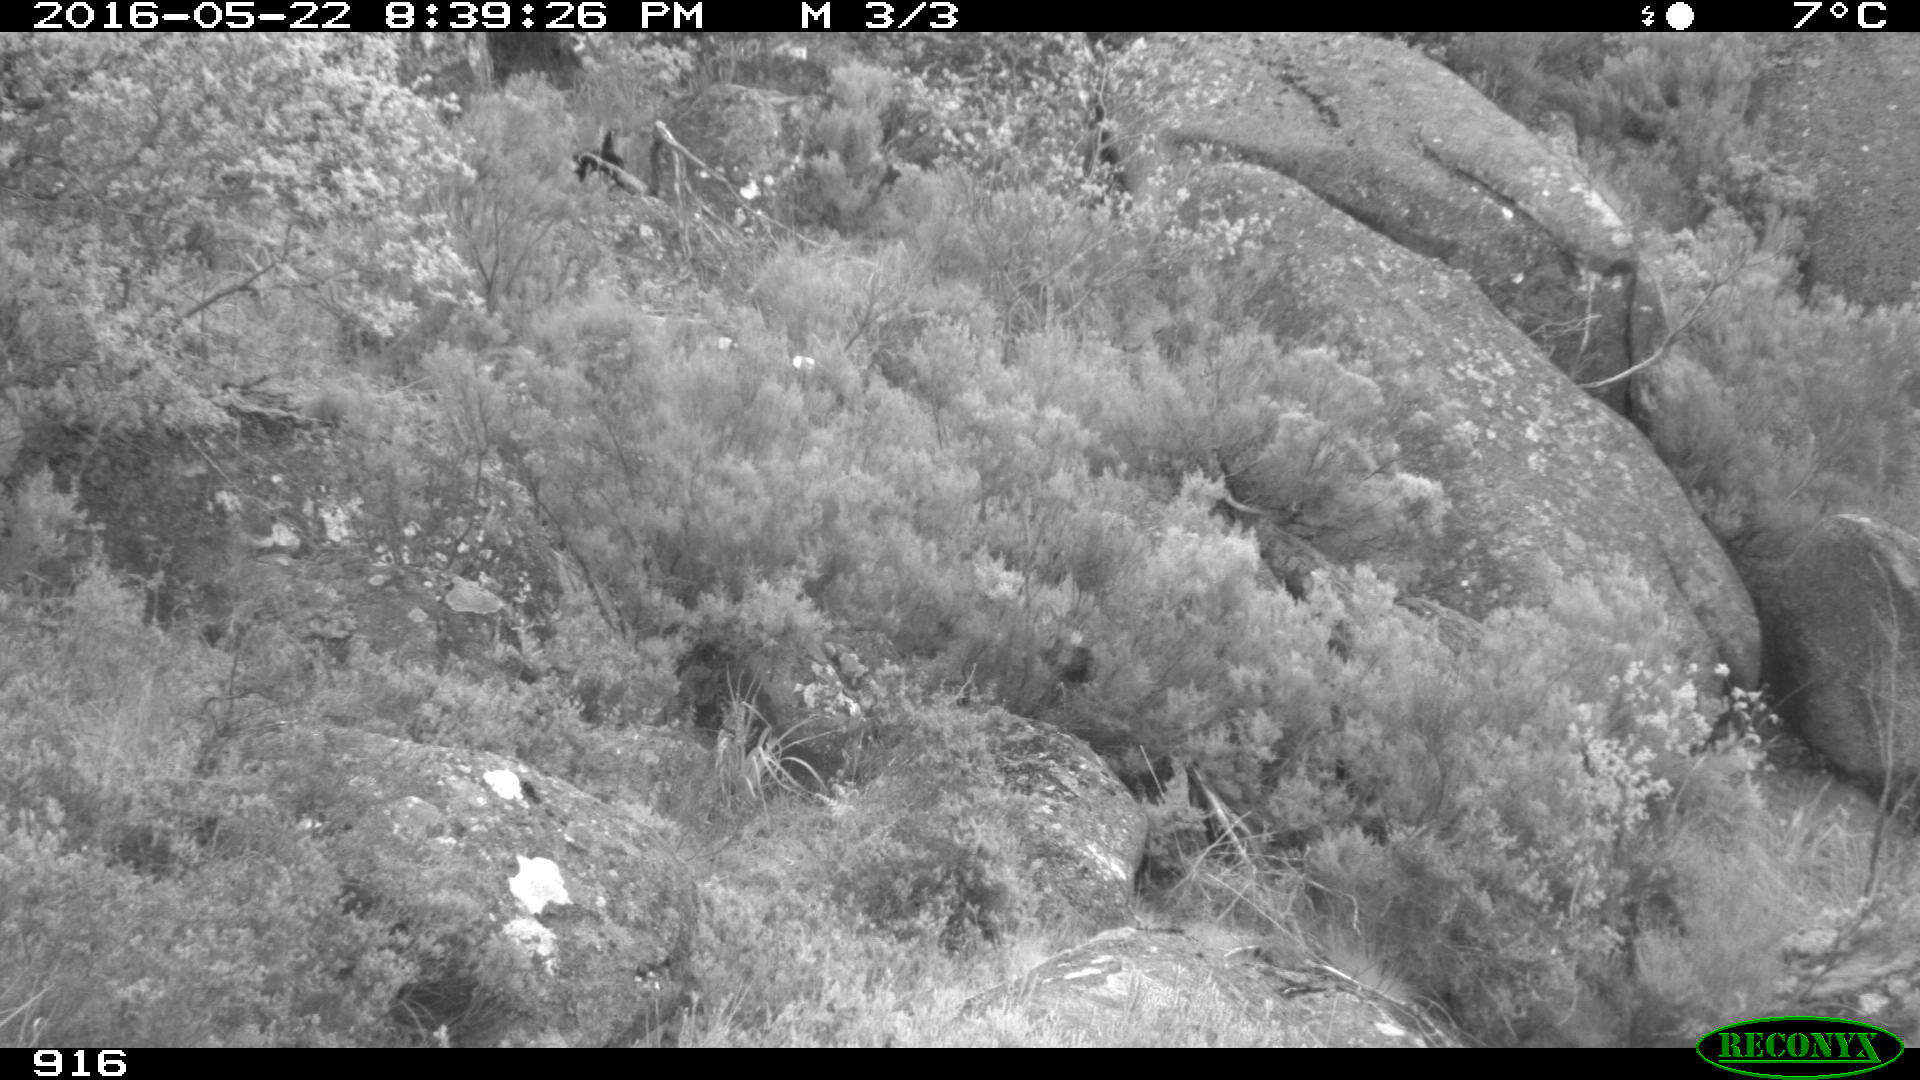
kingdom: Animalia
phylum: Chordata
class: Mammalia
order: Carnivora
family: Canidae
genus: Canis
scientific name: Canis lupus
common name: Gray wolf
